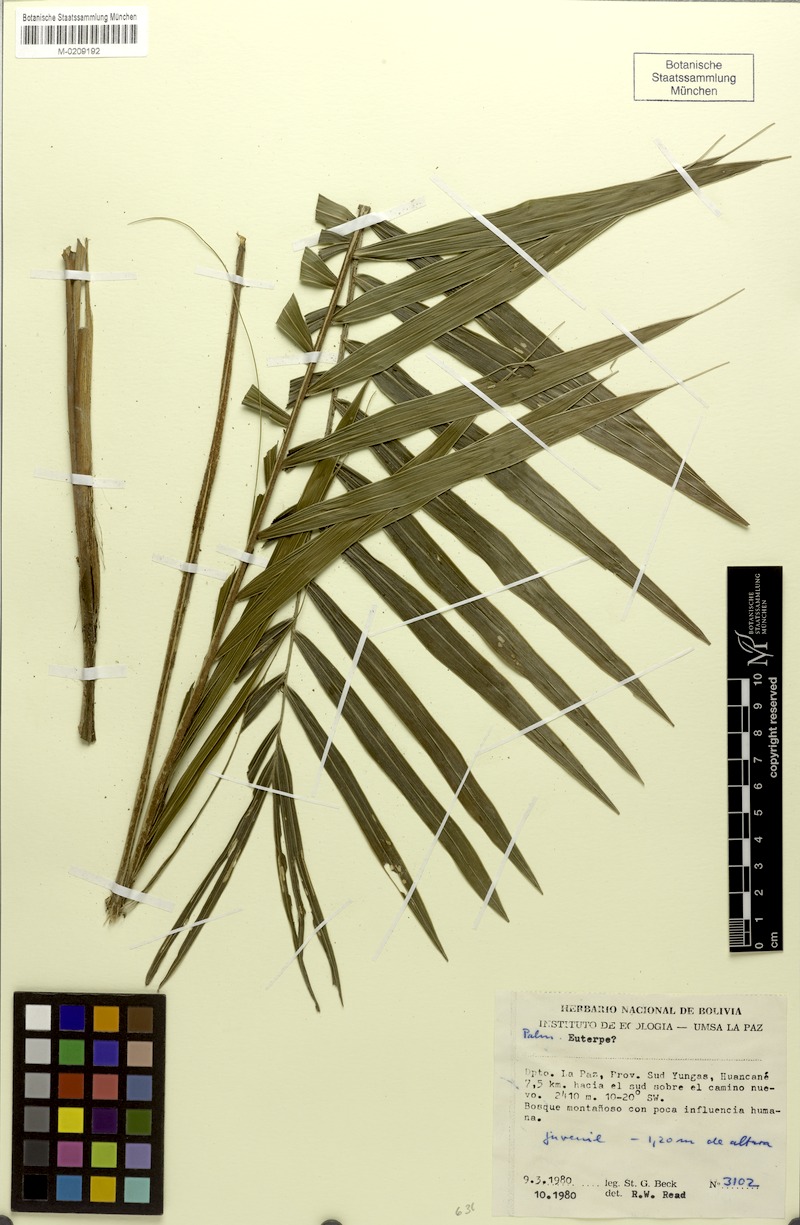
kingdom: Plantae
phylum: Tracheophyta
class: Liliopsida
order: Arecales
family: Arecaceae
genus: Euterpe
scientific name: Euterpe
